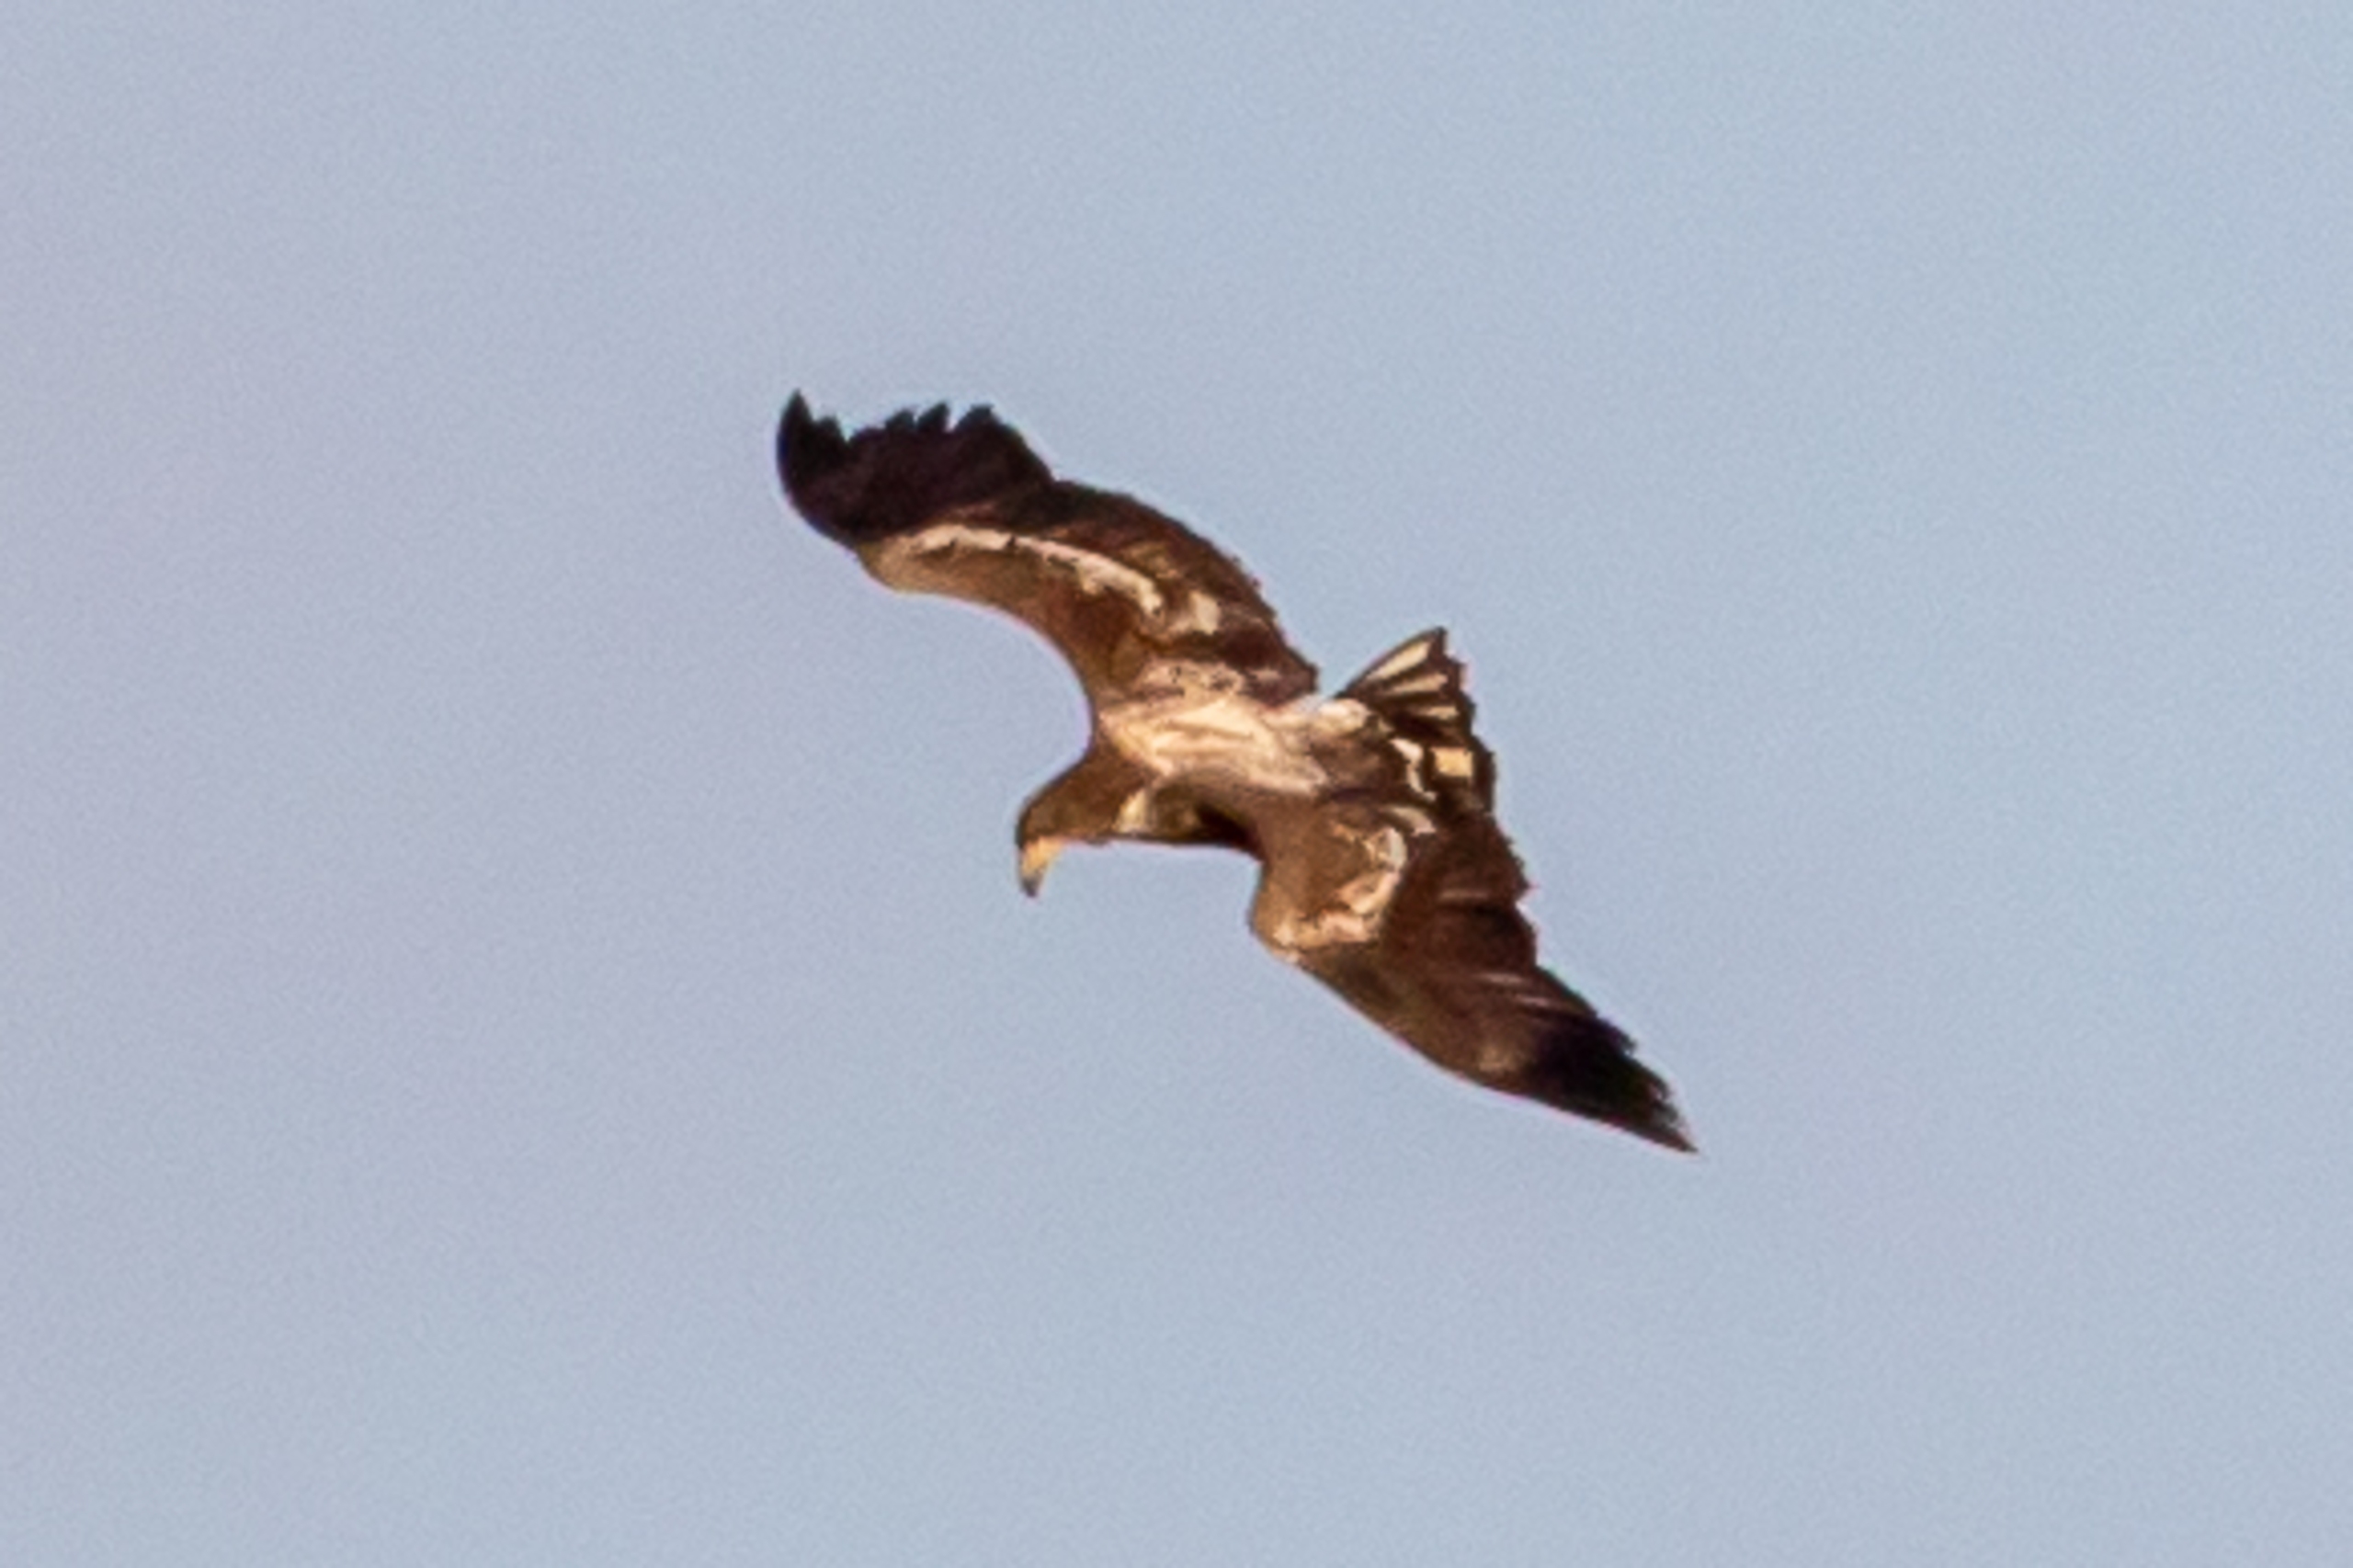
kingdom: Animalia
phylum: Chordata
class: Aves
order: Accipitriformes
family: Accipitridae
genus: Haliaeetus
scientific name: Haliaeetus albicilla
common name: Havørn
